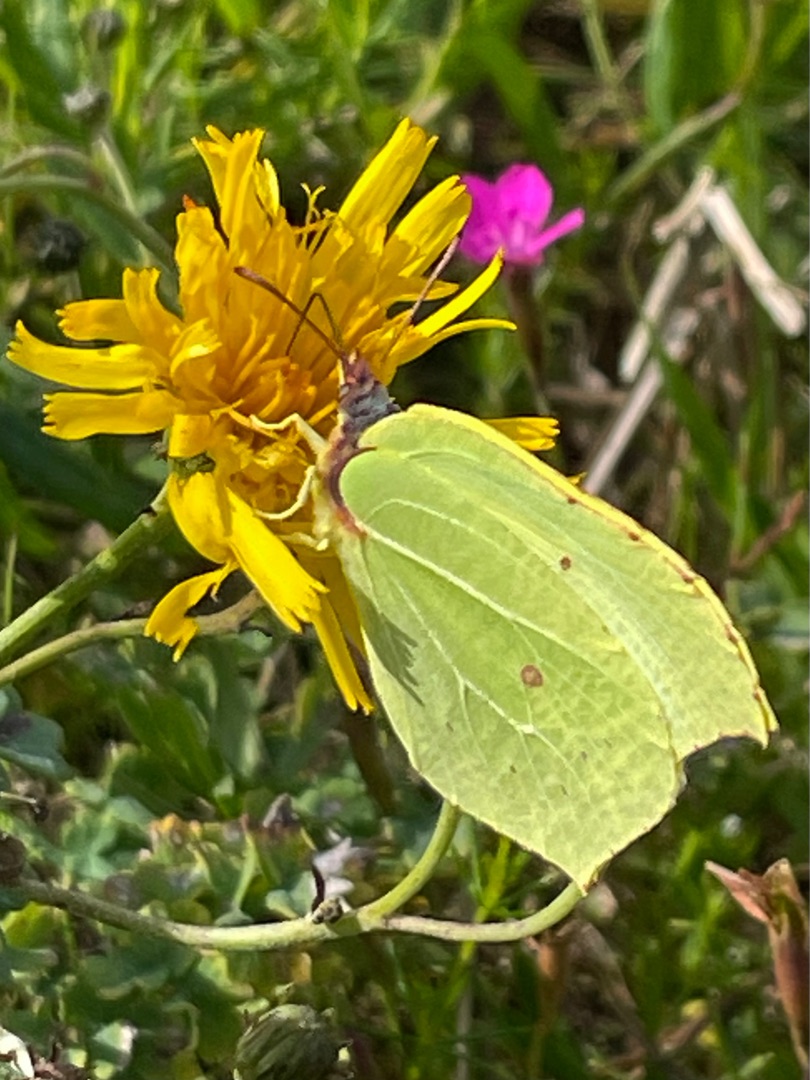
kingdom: Animalia
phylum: Arthropoda
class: Insecta
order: Lepidoptera
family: Pieridae
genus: Gonepteryx
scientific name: Gonepteryx rhamni
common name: Citronsommerfugl
